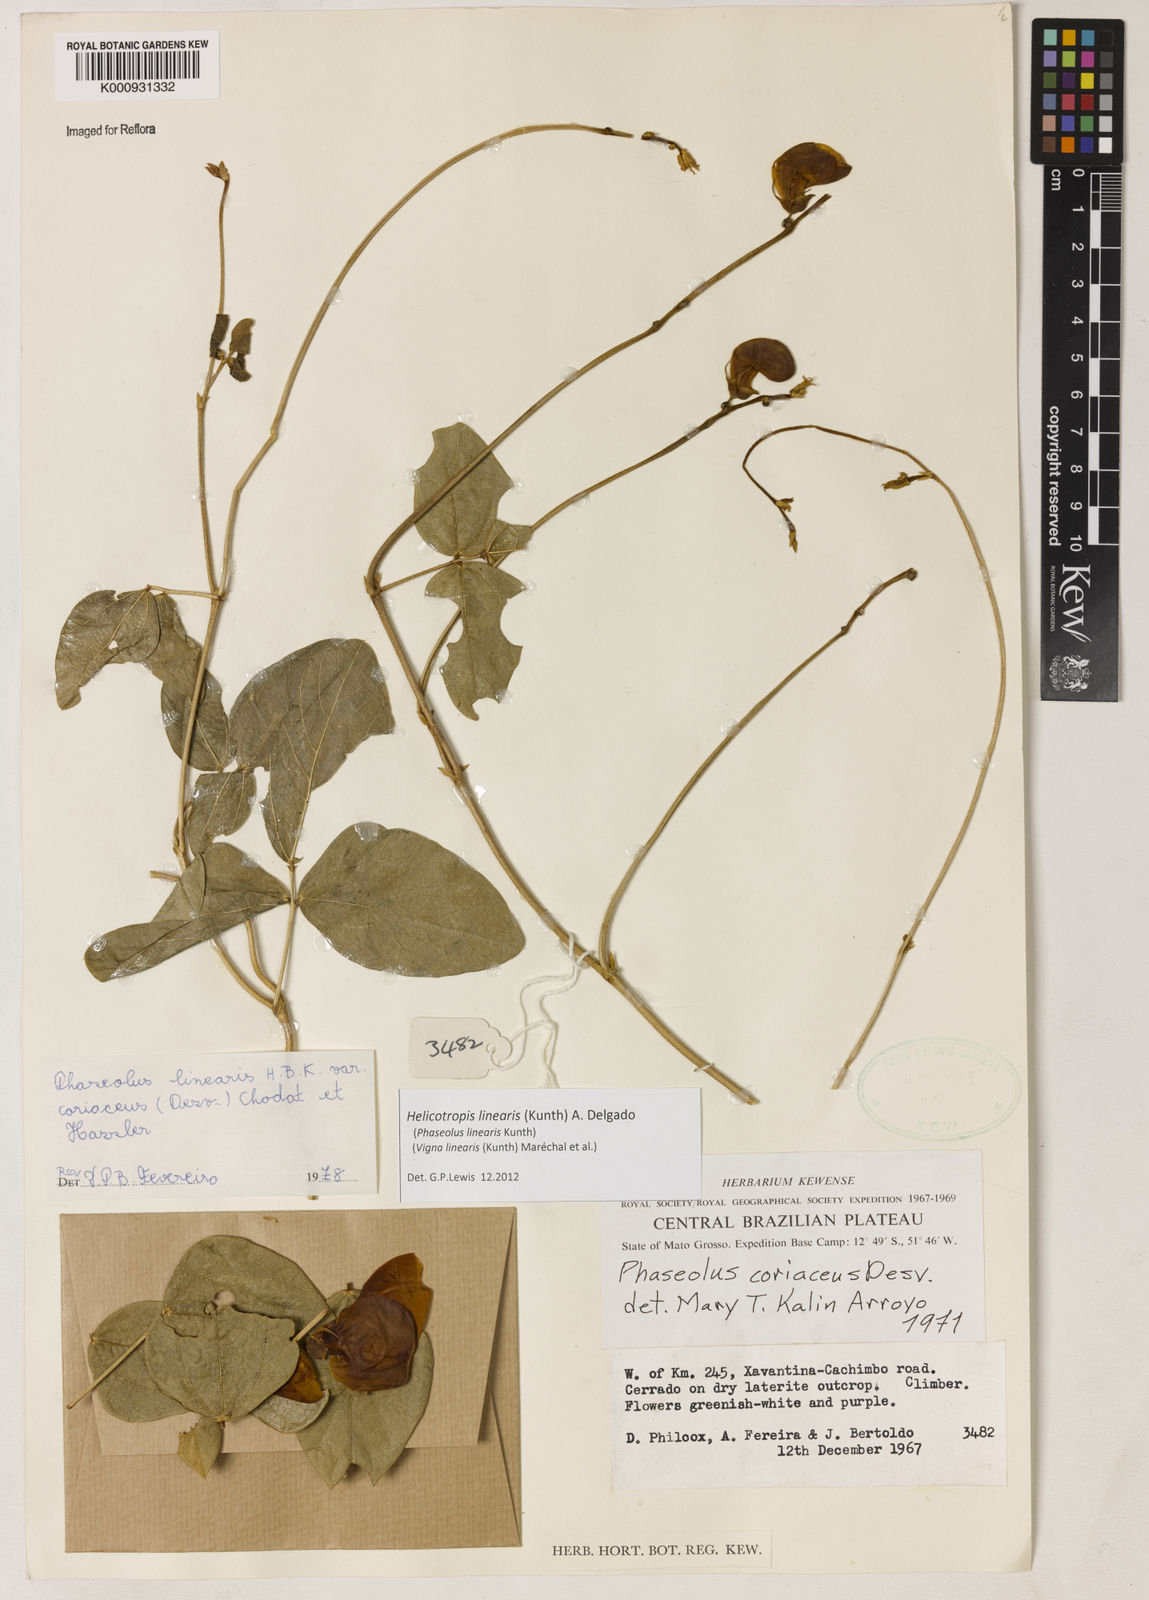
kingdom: Plantae
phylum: Tracheophyta
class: Magnoliopsida
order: Fabales
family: Fabaceae
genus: Helicotropis
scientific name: Helicotropis linearis
